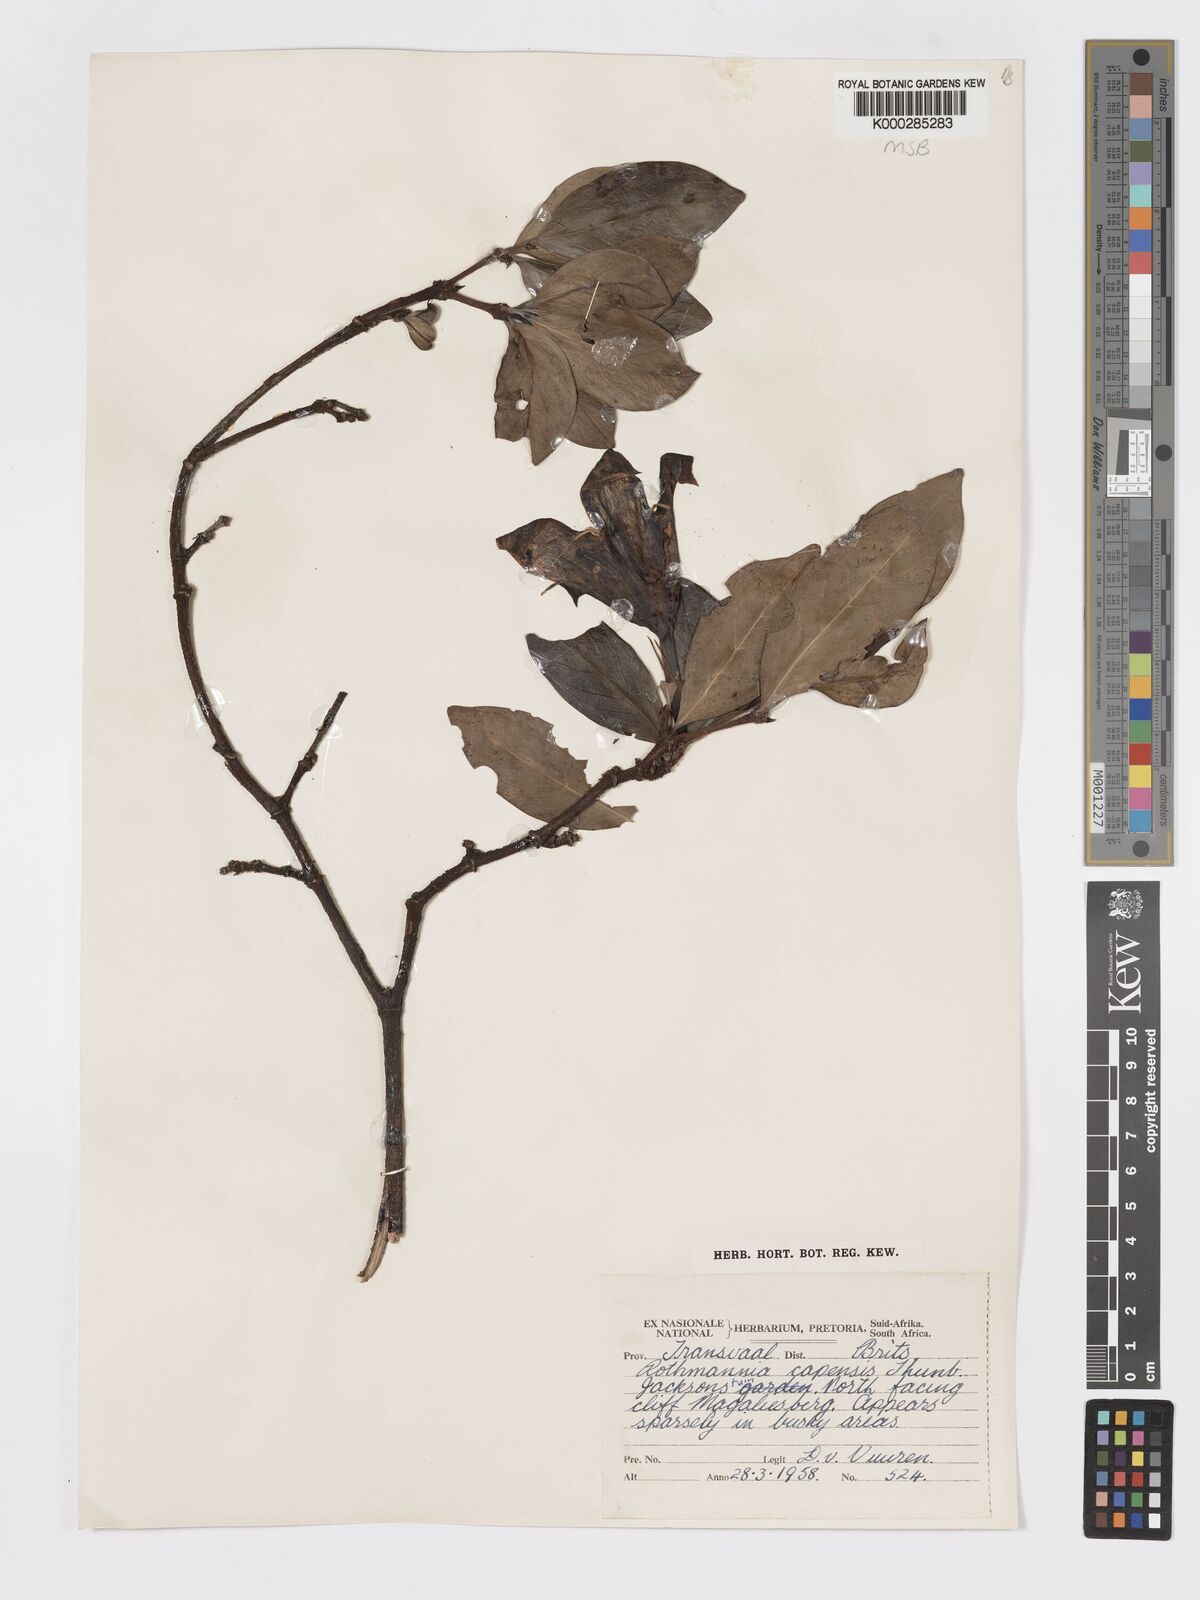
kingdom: Plantae
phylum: Tracheophyta
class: Magnoliopsida
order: Gentianales
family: Rubiaceae
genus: Rothmannia
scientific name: Rothmannia capensis
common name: Cape gardenia
